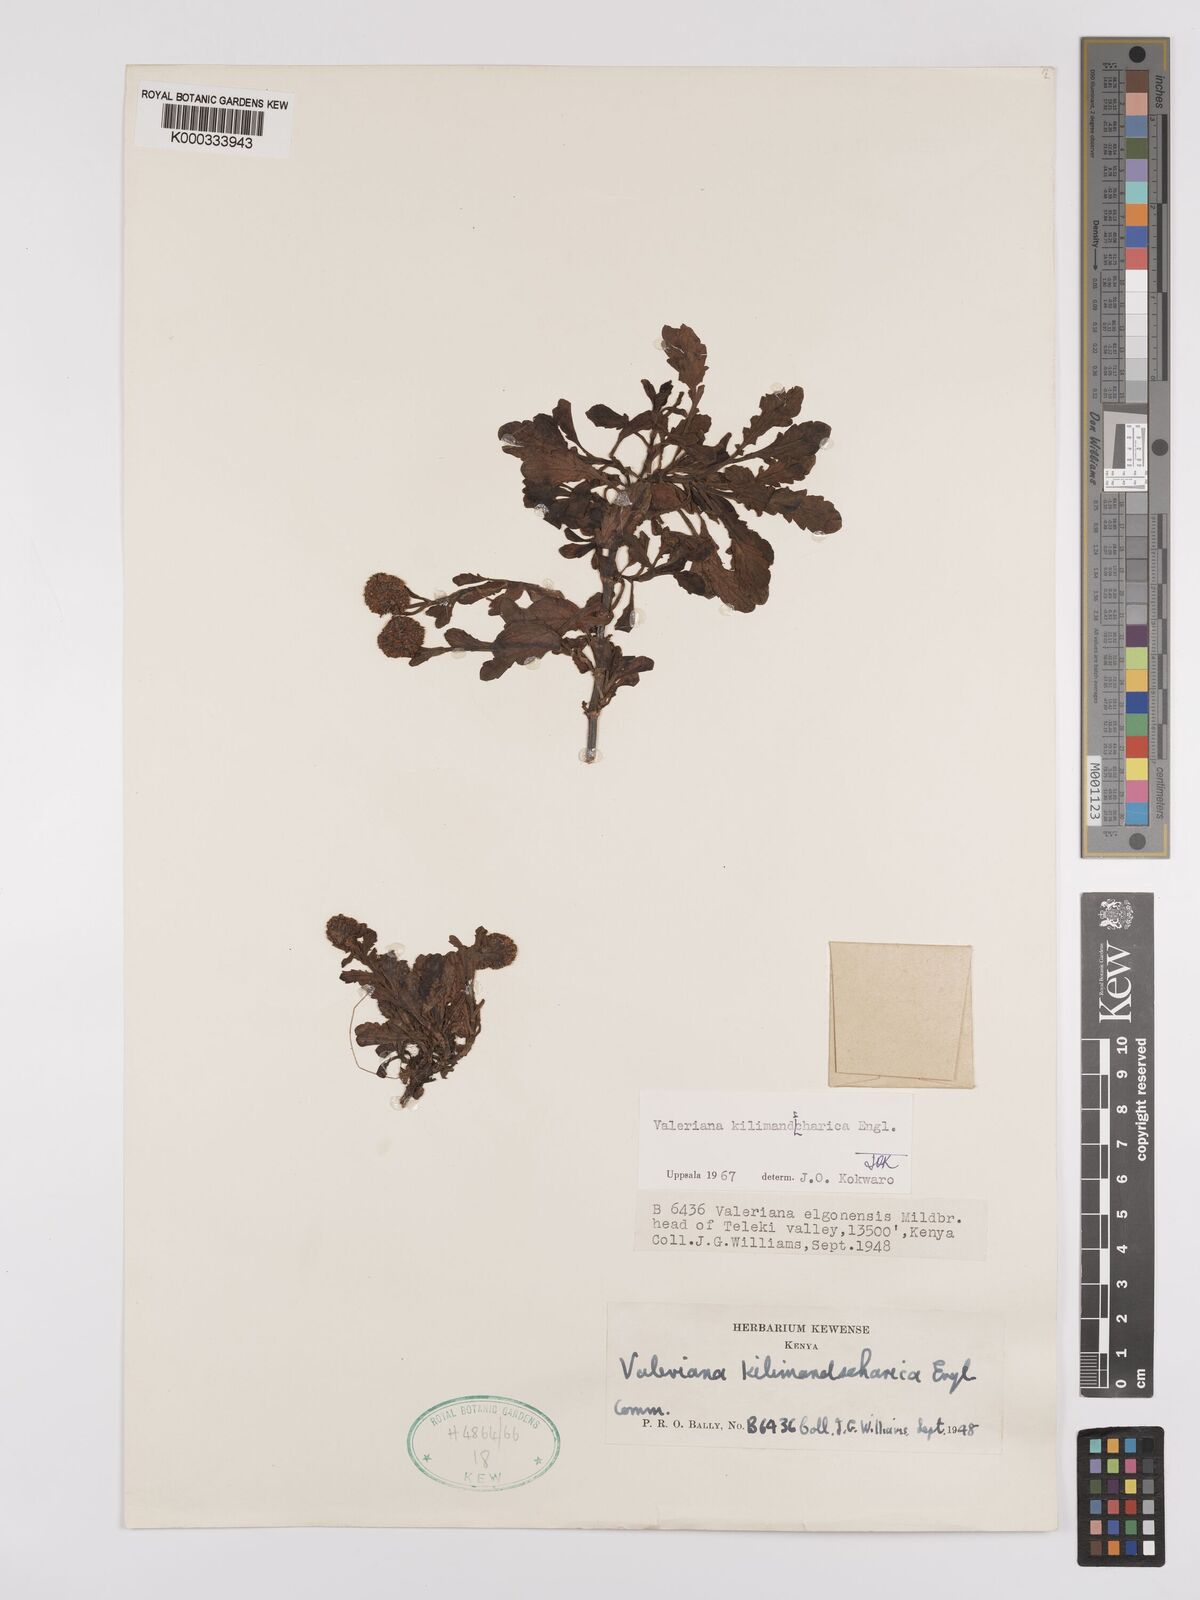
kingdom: Plantae
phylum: Tracheophyta
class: Magnoliopsida
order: Dipsacales
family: Caprifoliaceae
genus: Valeriana
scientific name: Valeriana kilimandscharica
